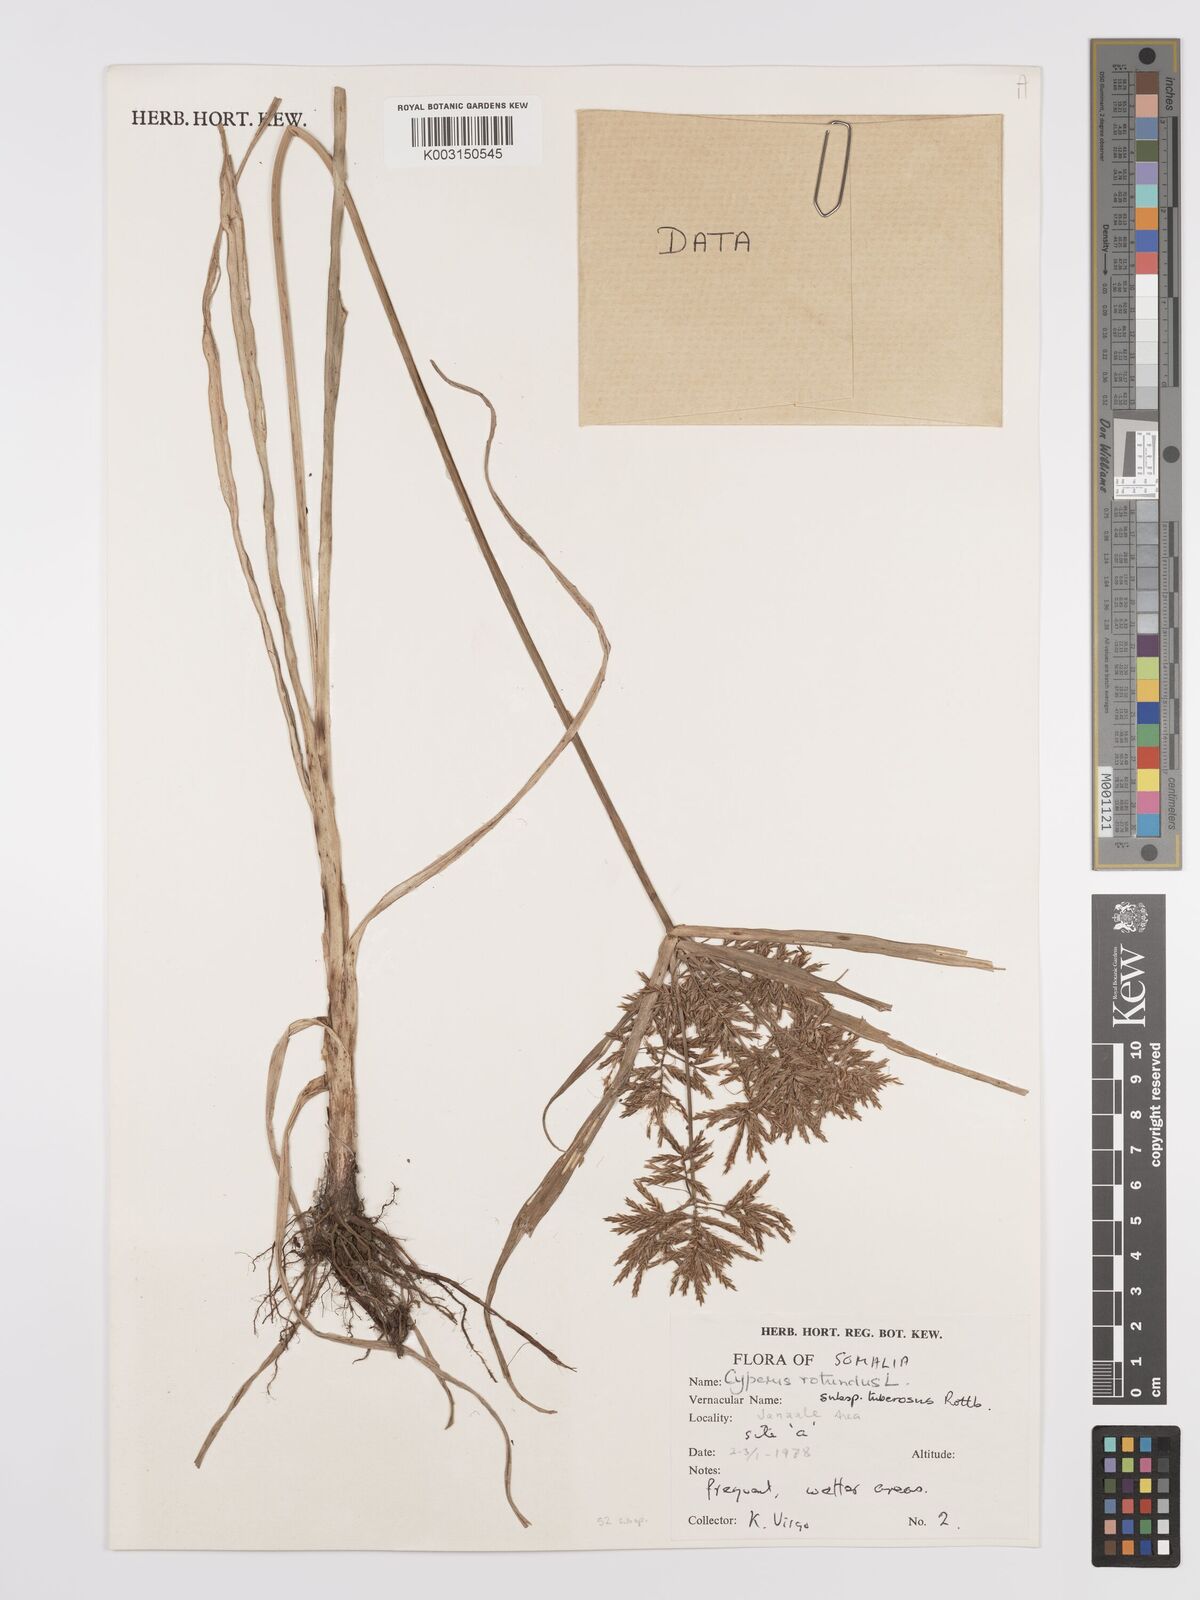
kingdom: Plantae
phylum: Tracheophyta
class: Liliopsida
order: Poales
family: Cyperaceae
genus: Cyperus
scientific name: Cyperus tuberosus
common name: Nut grass
